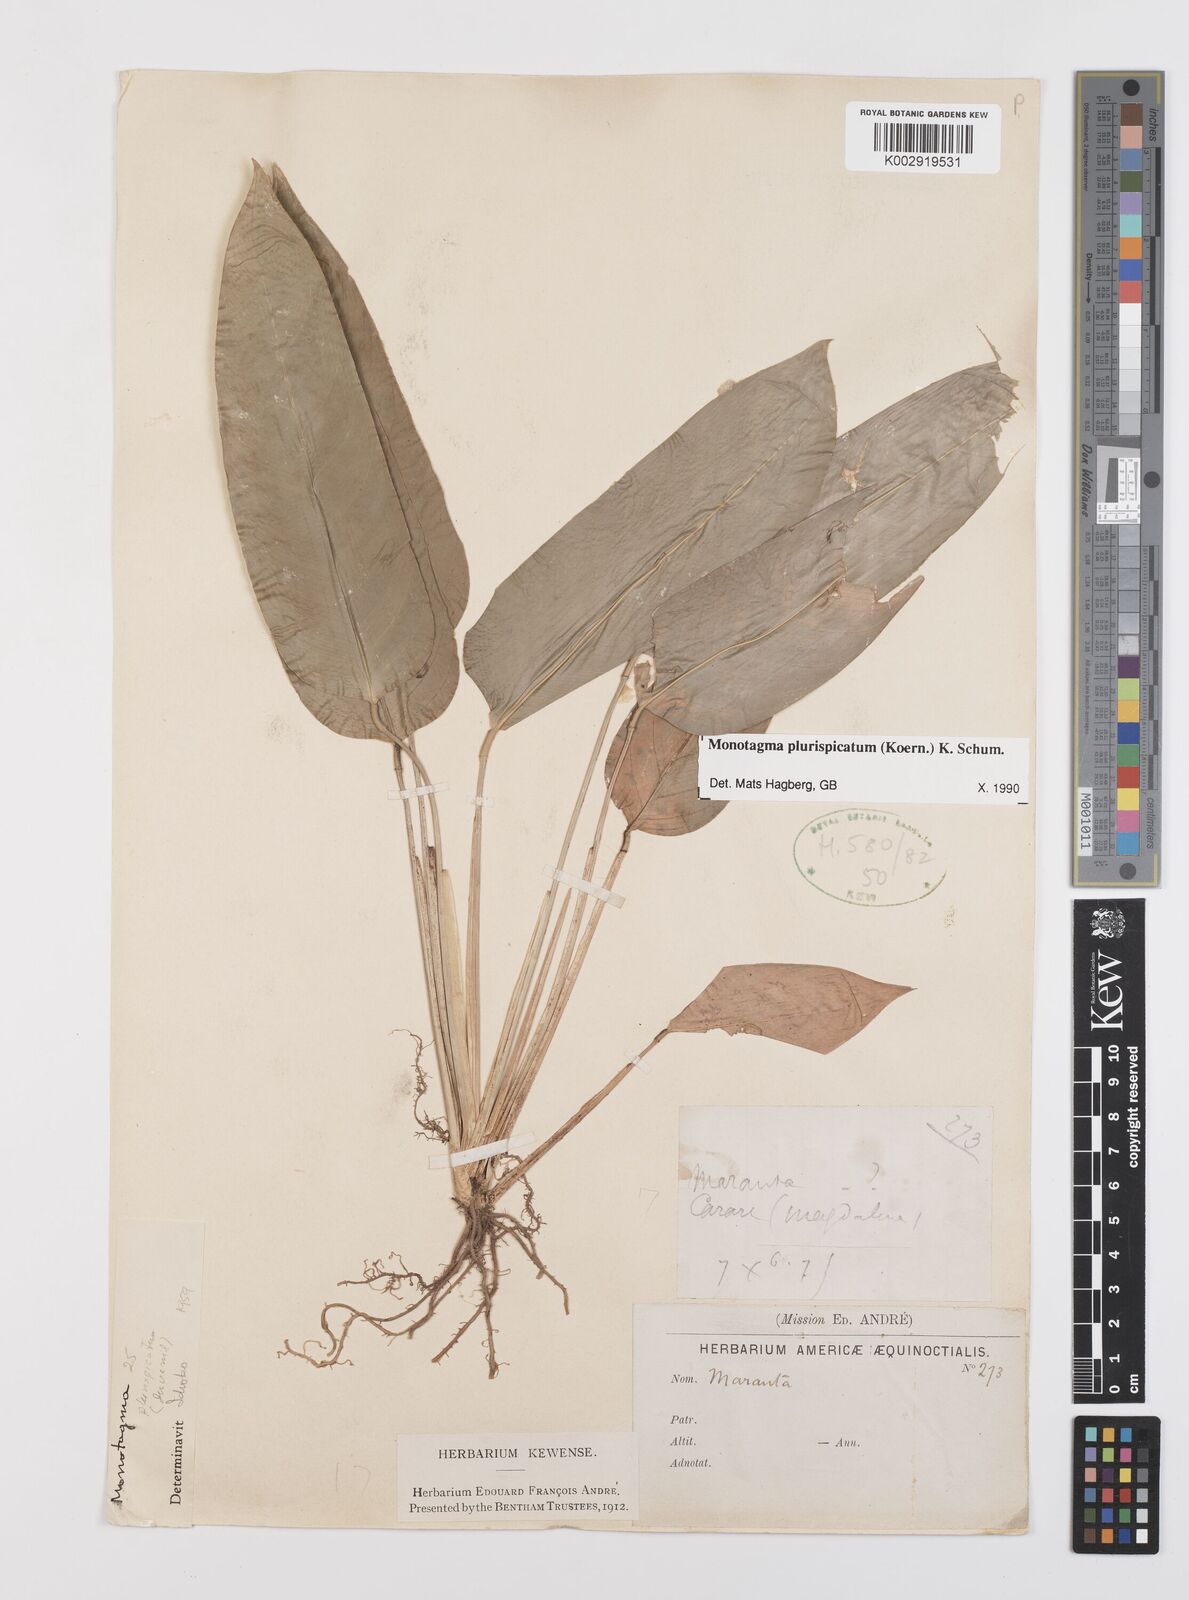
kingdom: Plantae
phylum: Tracheophyta
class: Liliopsida
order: Zingiberales
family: Marantaceae
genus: Monotagma
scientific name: Monotagma plurispicatum
